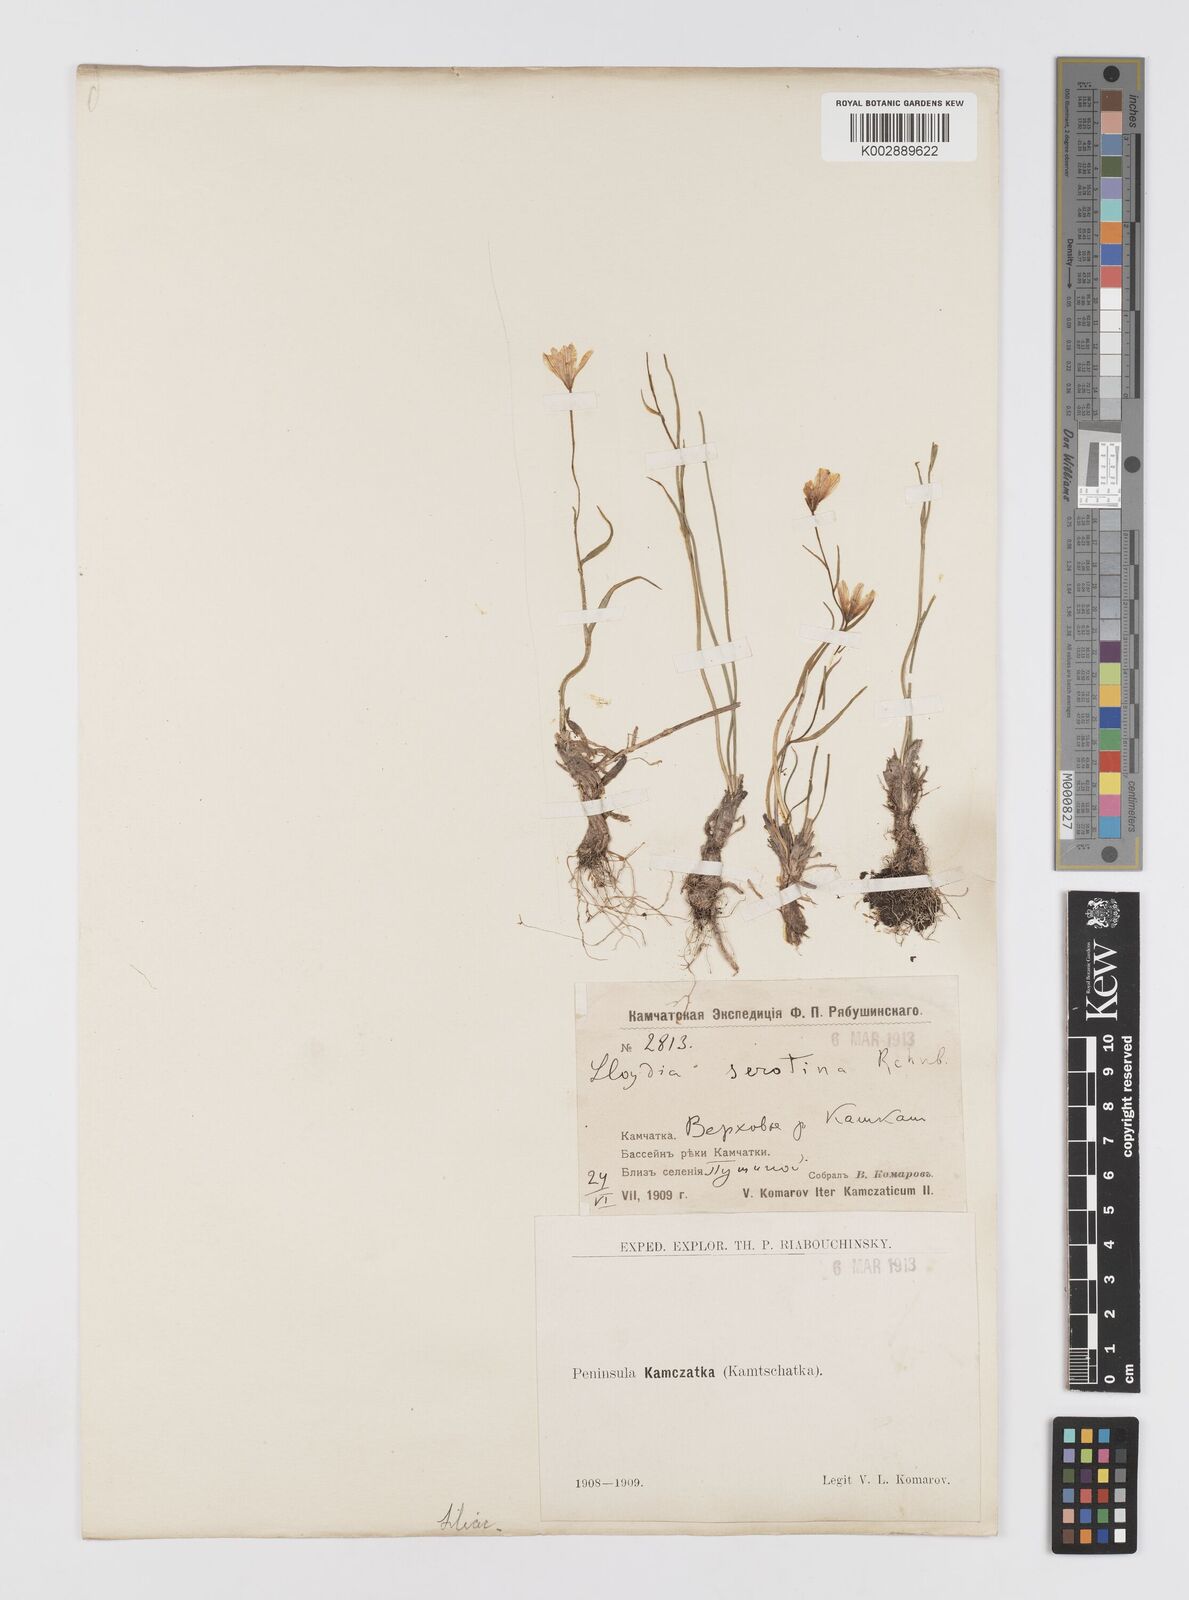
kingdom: Plantae
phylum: Tracheophyta
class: Liliopsida
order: Liliales
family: Liliaceae
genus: Gagea
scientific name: Gagea serotina
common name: Snowdon lily
